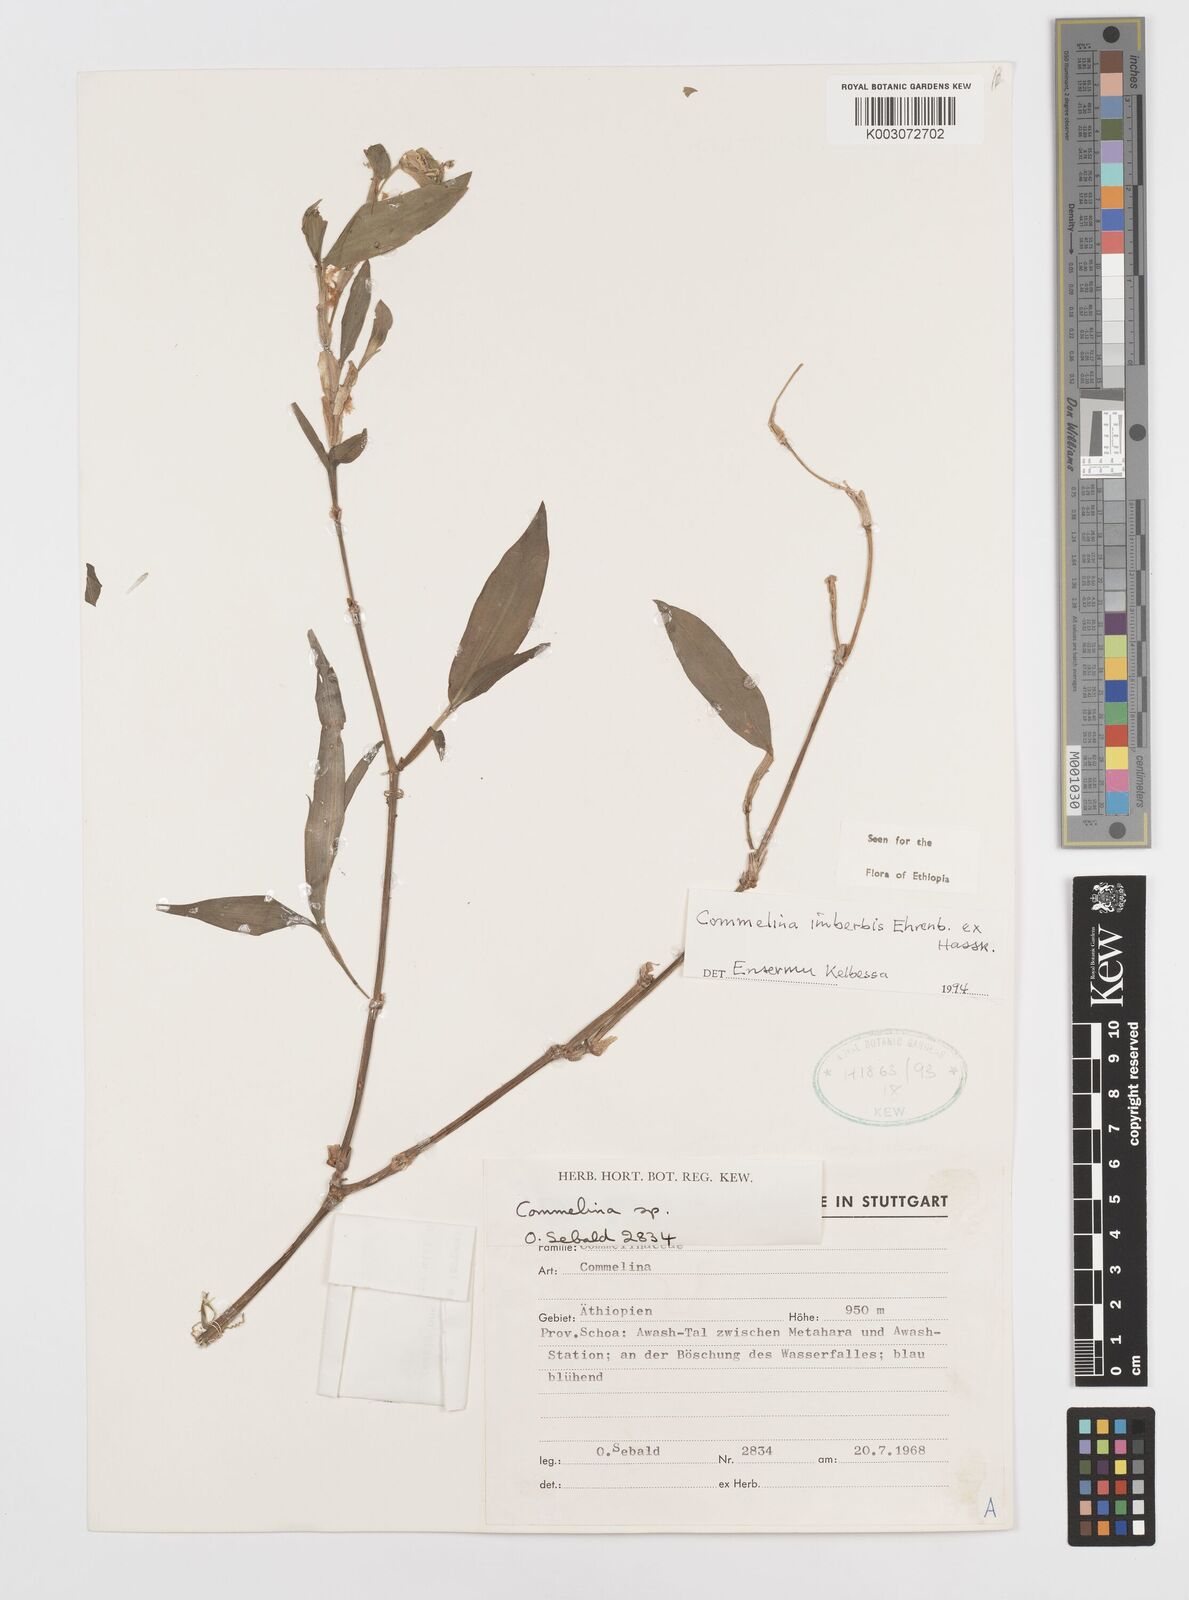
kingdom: Plantae
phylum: Tracheophyta
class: Liliopsida
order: Commelinales
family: Commelinaceae
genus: Commelina
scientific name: Commelina imberbis
